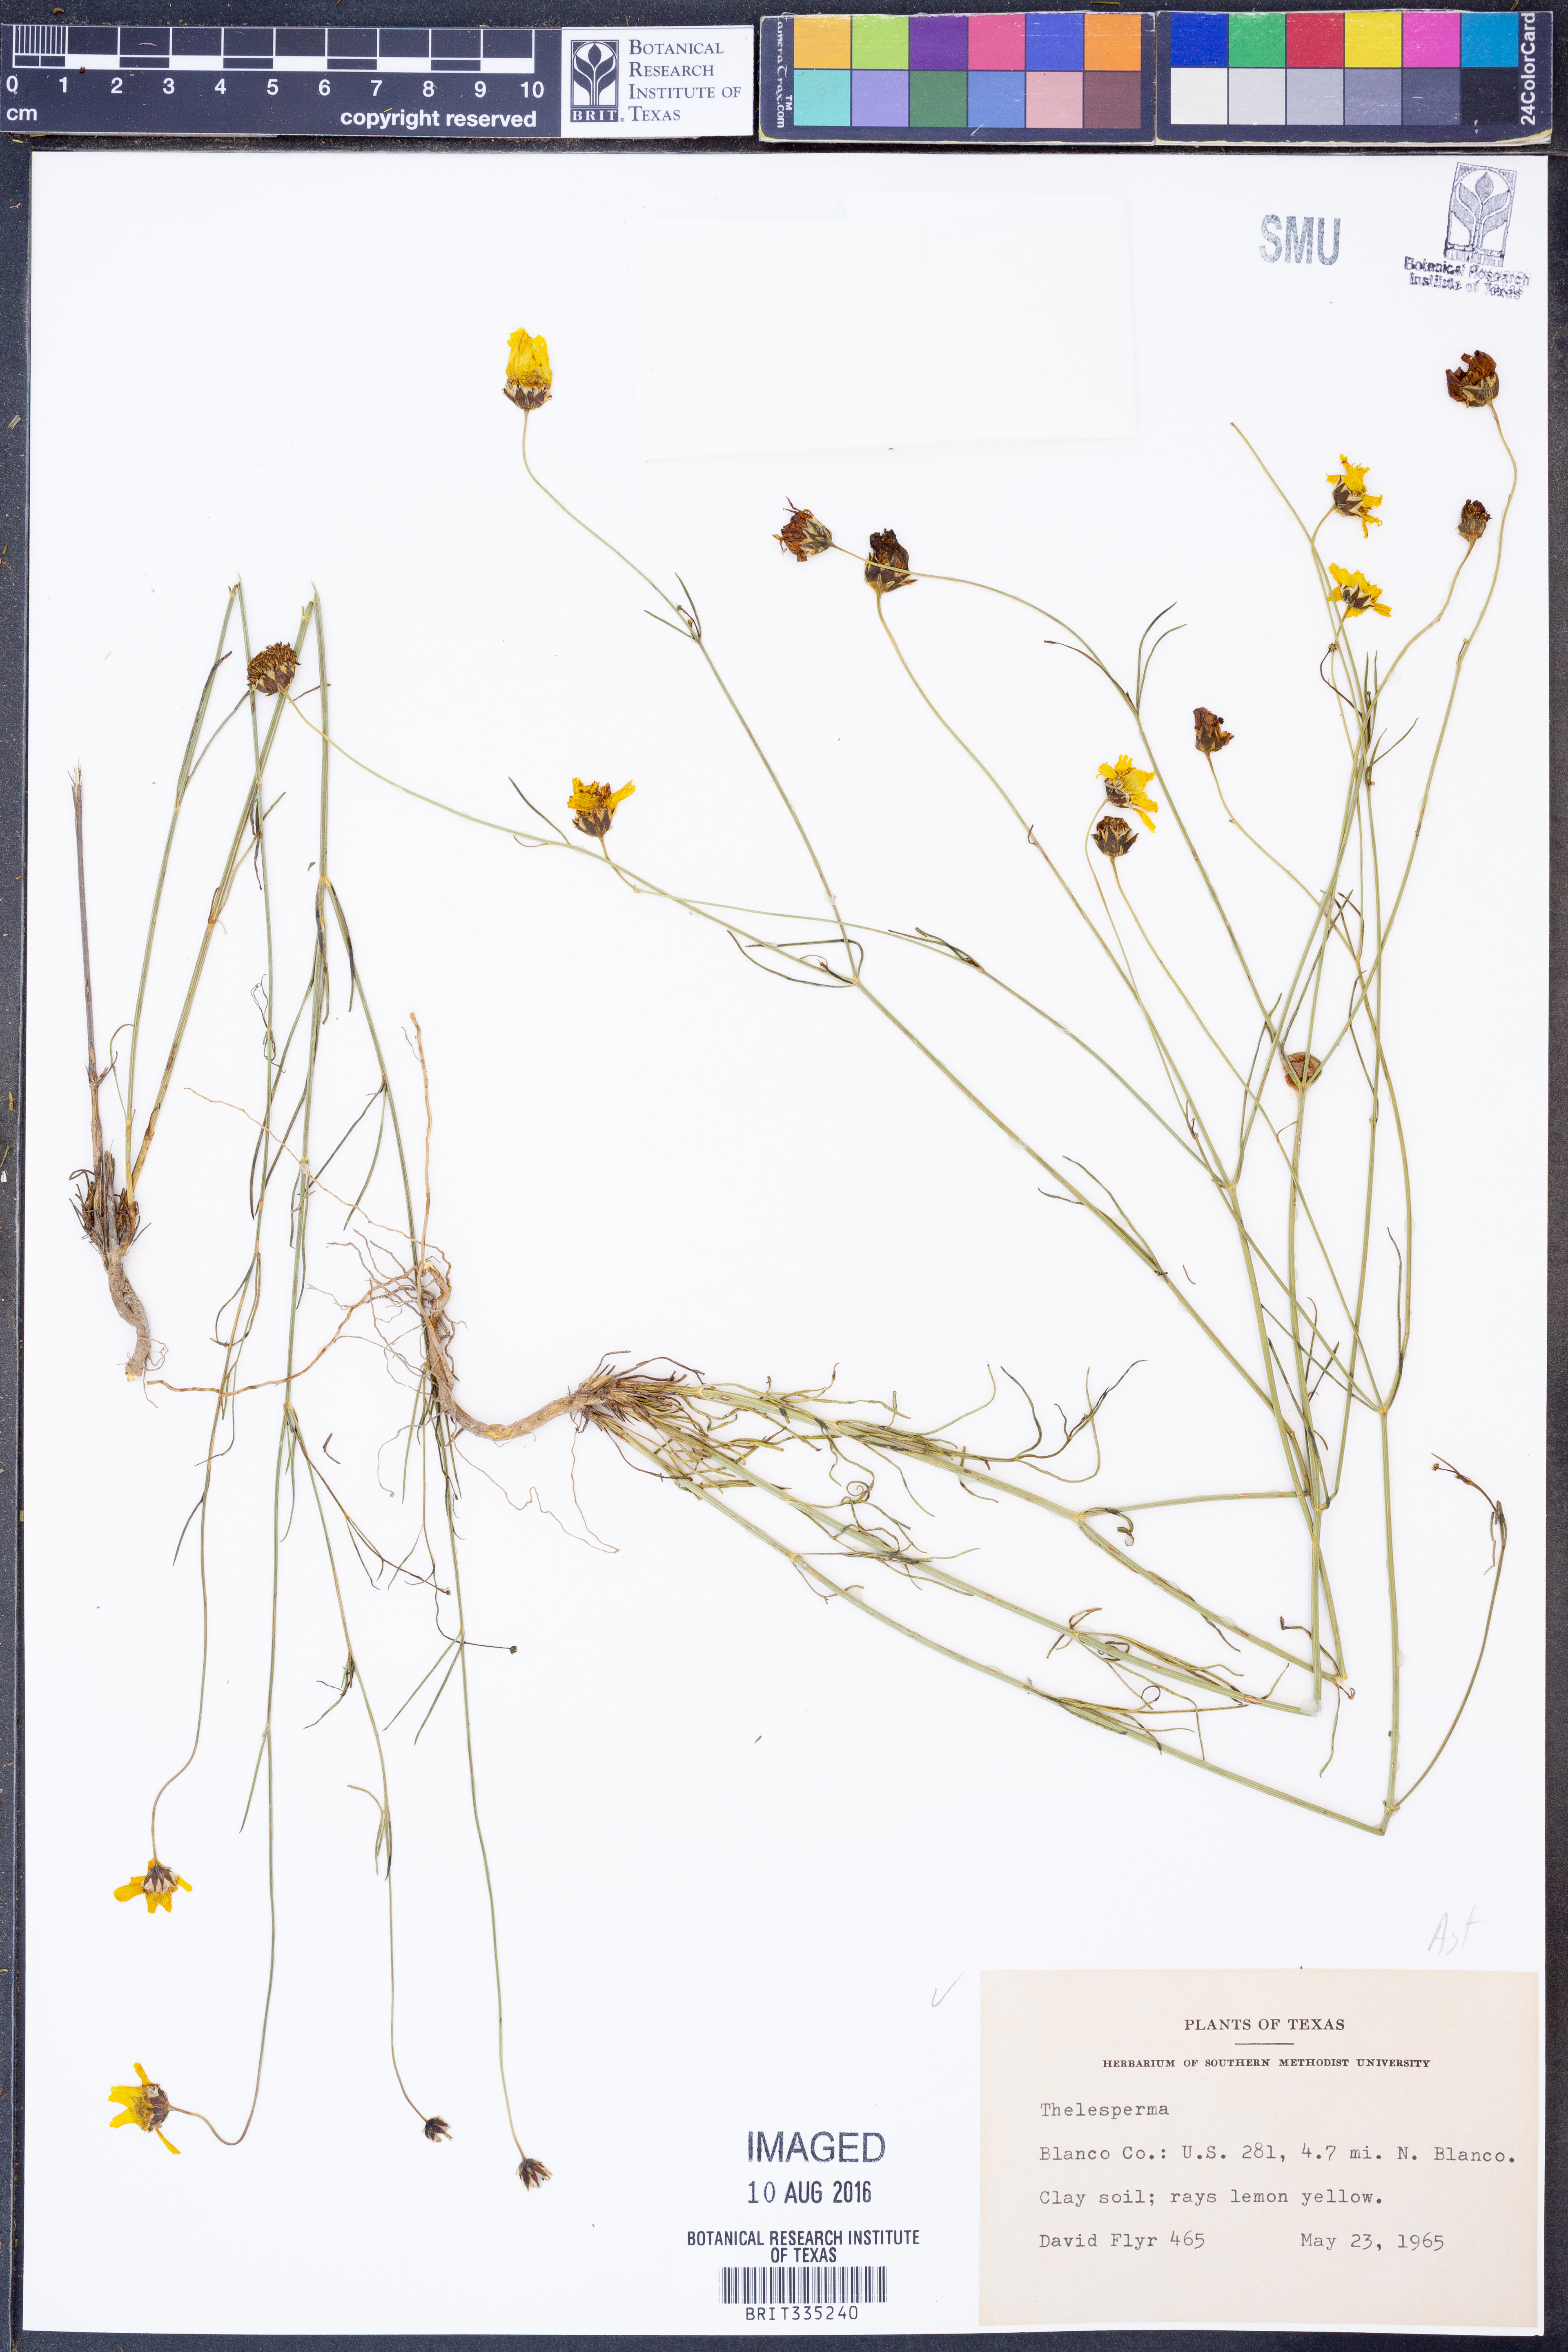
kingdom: Plantae
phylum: Tracheophyta
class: Magnoliopsida
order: Asterales
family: Asteraceae
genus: Thelesperma
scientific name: Thelesperma
